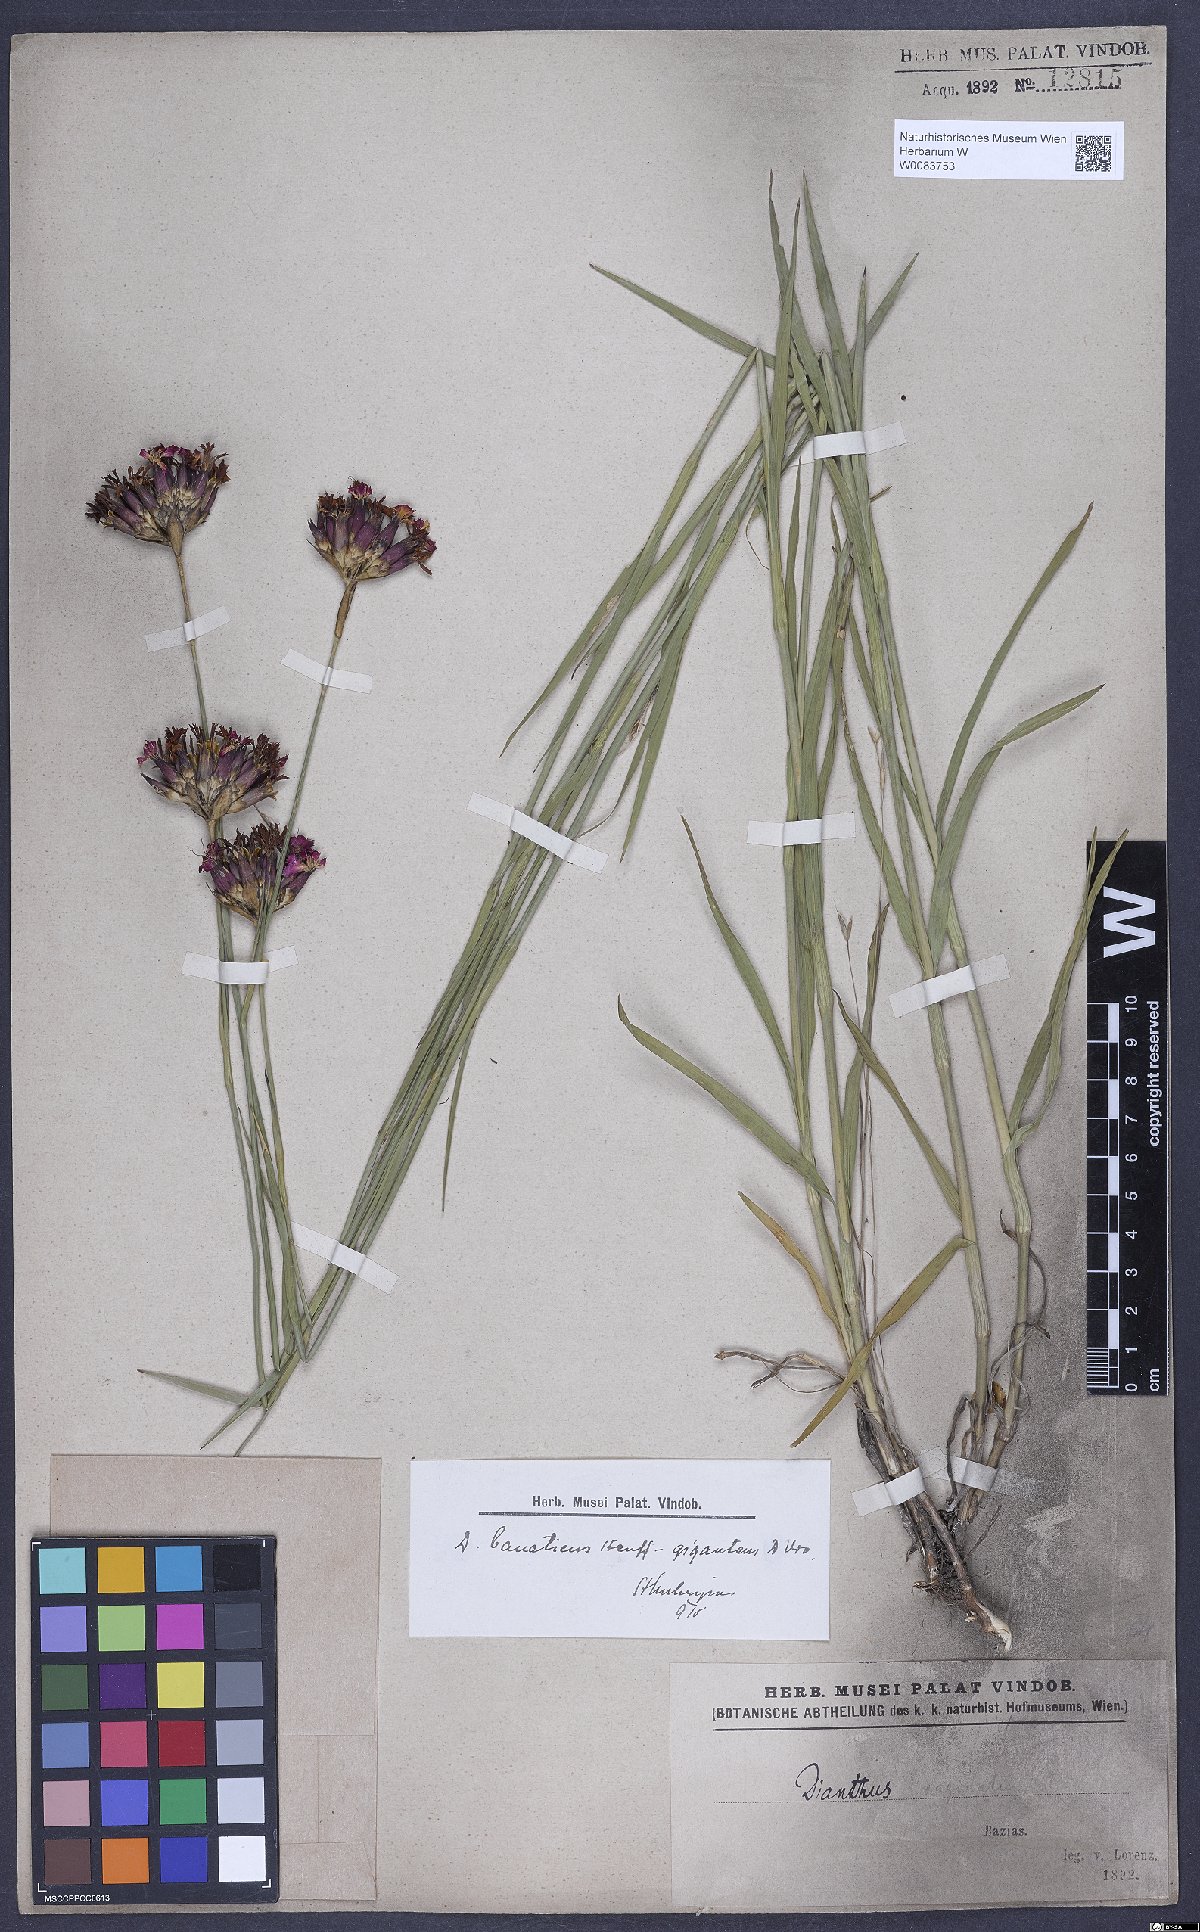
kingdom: Plantae
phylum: Tracheophyta
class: Magnoliopsida
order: Caryophyllales
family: Caryophyllaceae
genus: Dianthus
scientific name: Dianthus giganteus
